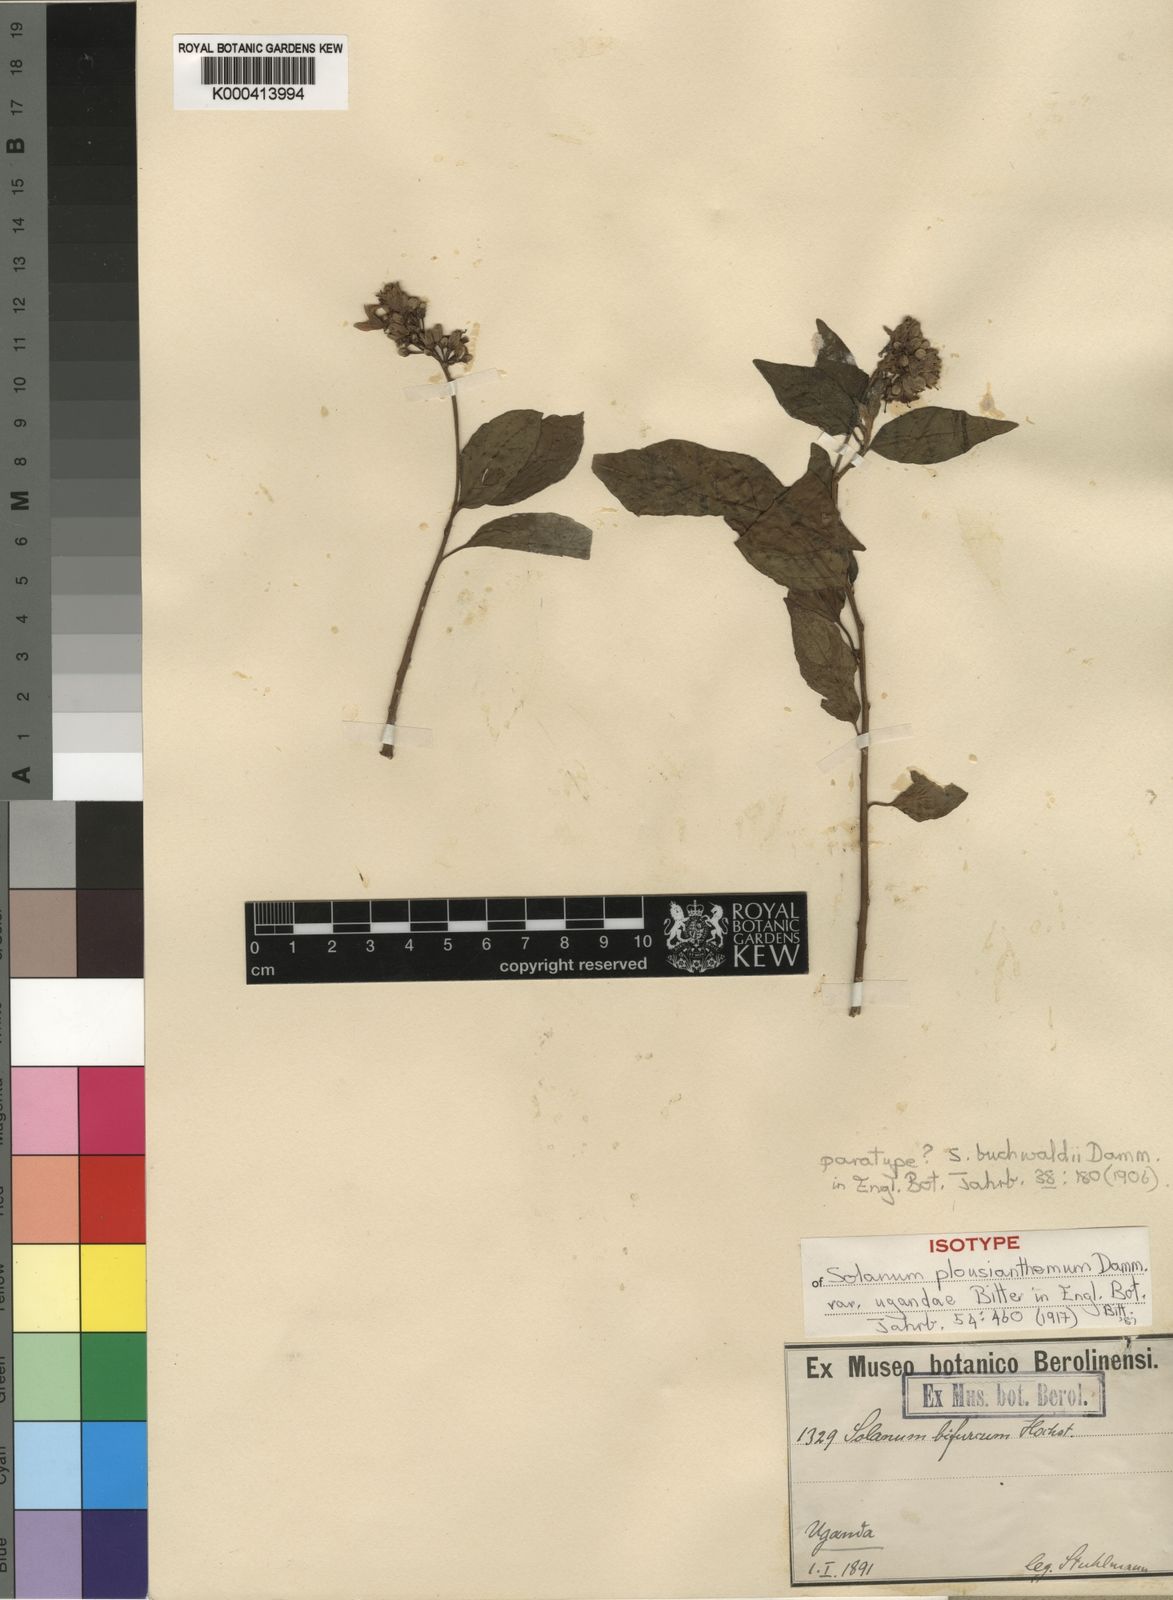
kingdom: Plantae
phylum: Tracheophyta
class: Magnoliopsida
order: Solanales
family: Solanaceae
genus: Solanum
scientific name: Solanum terminale
